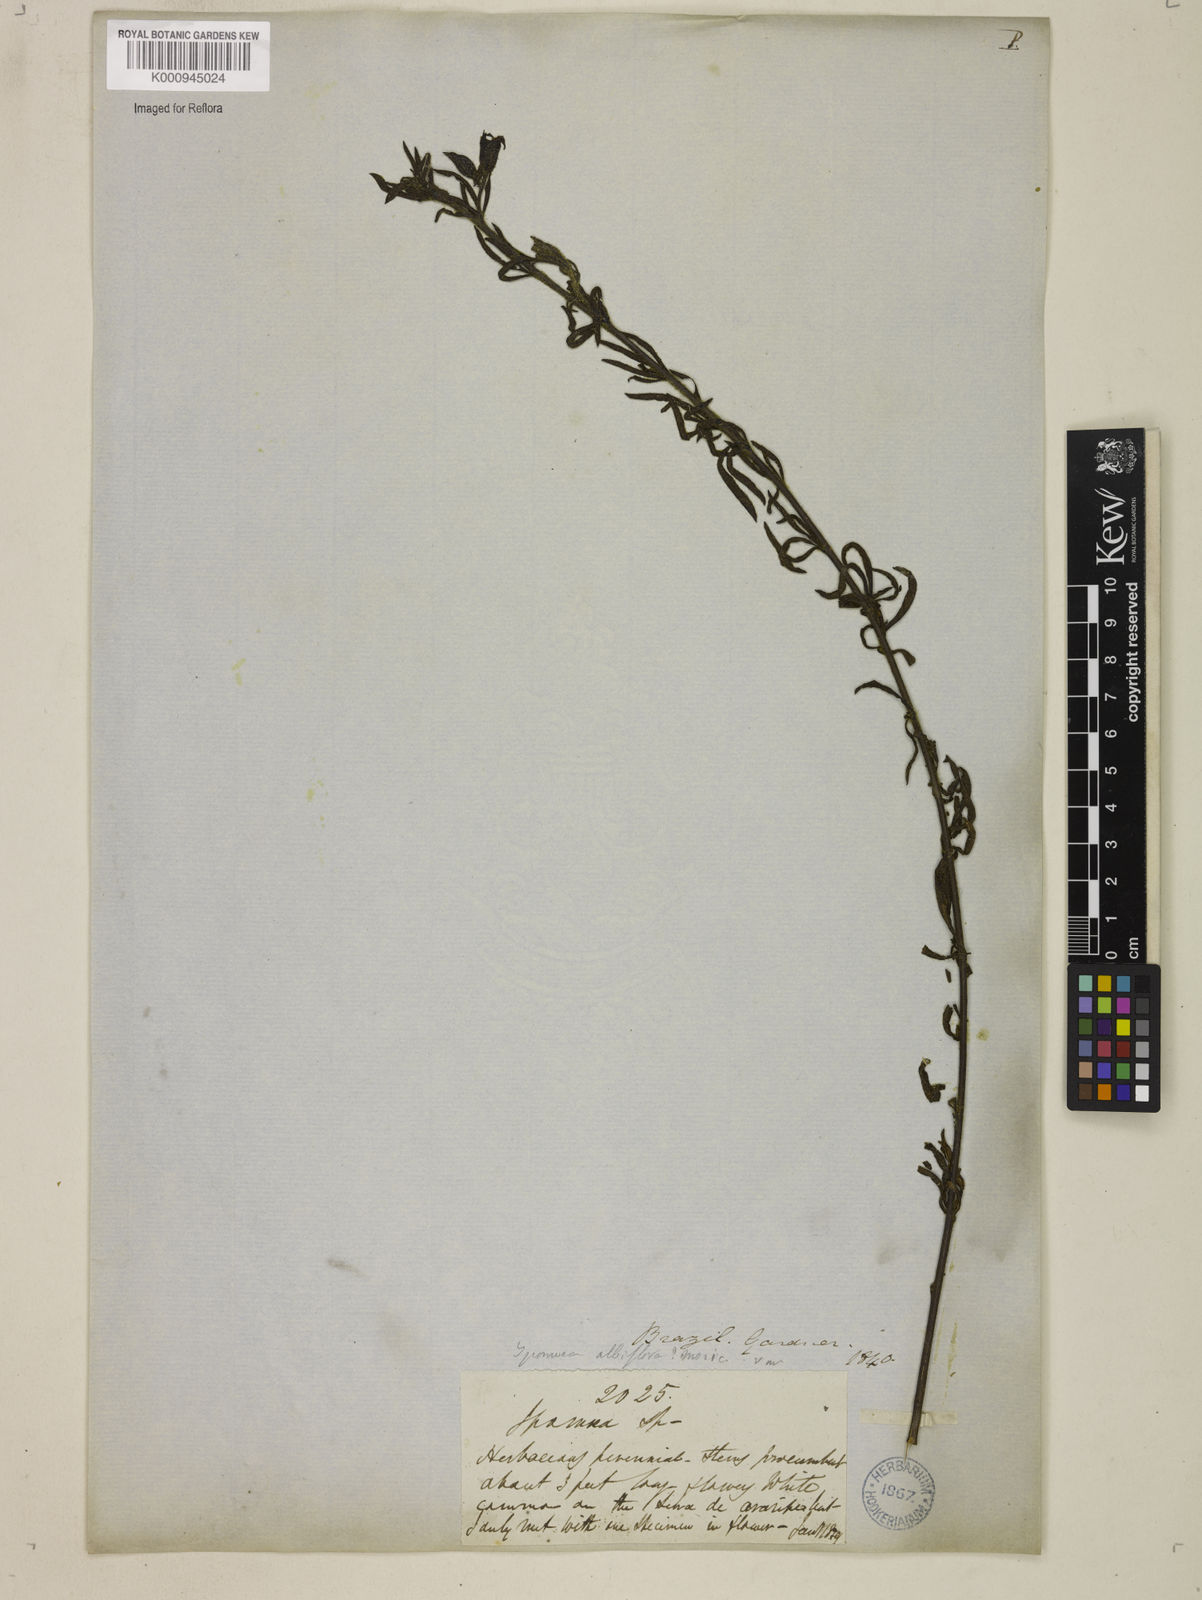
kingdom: Plantae
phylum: Tracheophyta
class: Magnoliopsida
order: Solanales
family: Convolvulaceae
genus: Distimake
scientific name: Distimake digitatus
